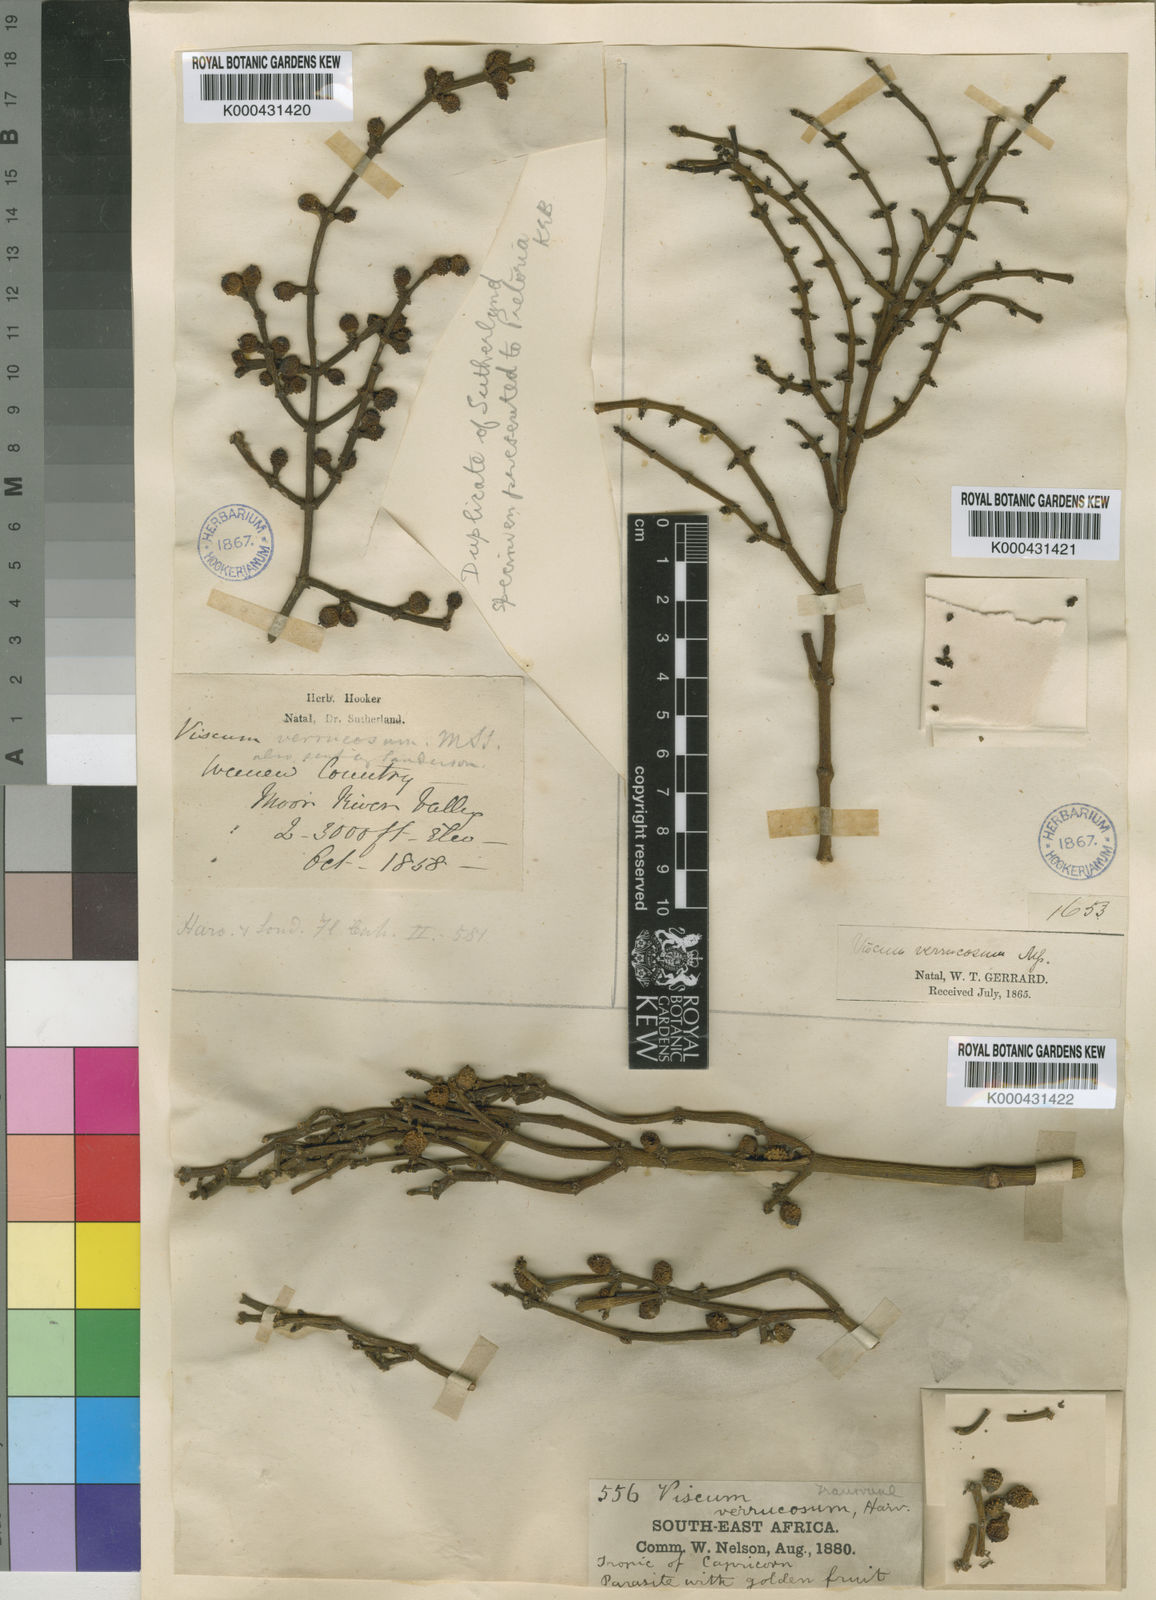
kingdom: Plantae
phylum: Tracheophyta
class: Magnoliopsida
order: Santalales
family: Viscaceae
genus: Viscum
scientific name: Viscum verrucosum
